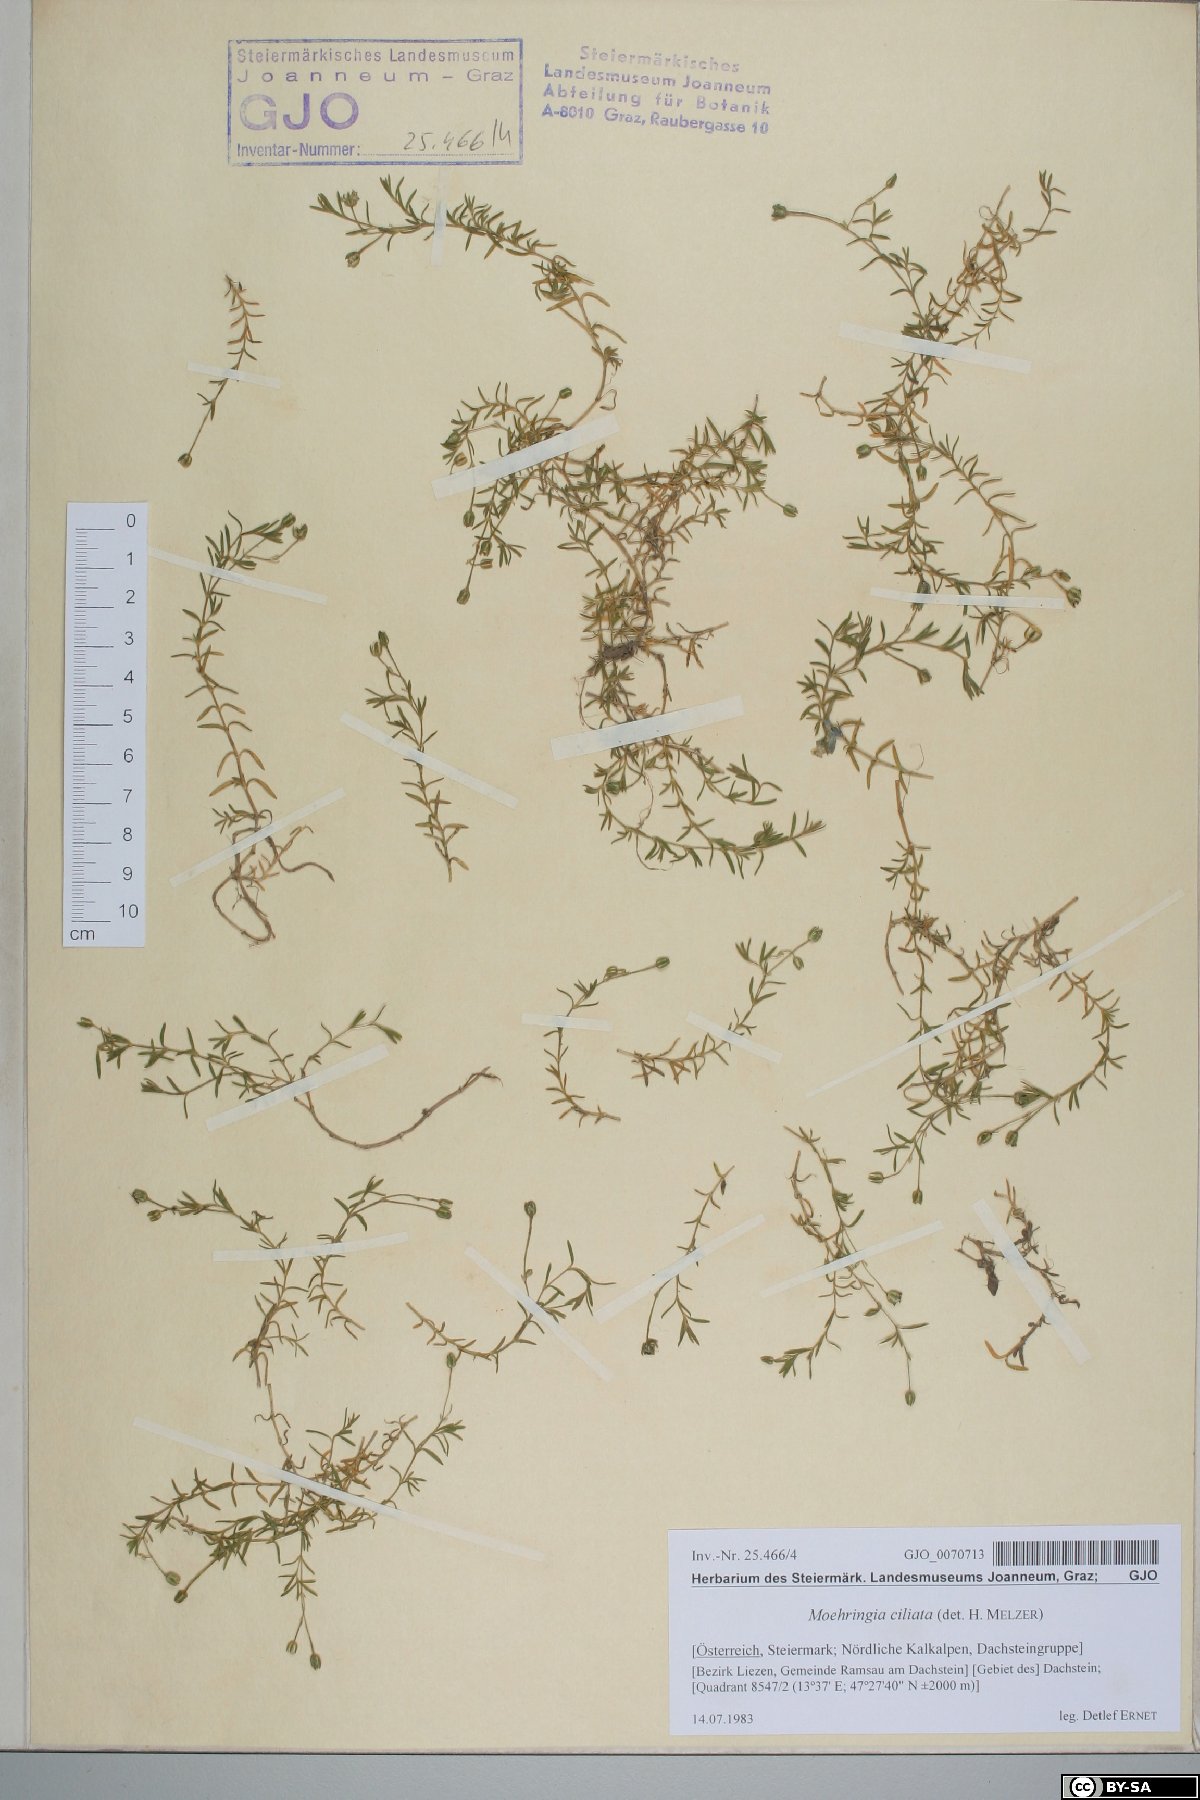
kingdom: Plantae
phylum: Tracheophyta
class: Magnoliopsida
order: Caryophyllales
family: Caryophyllaceae
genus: Moehringia
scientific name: Moehringia ciliata
